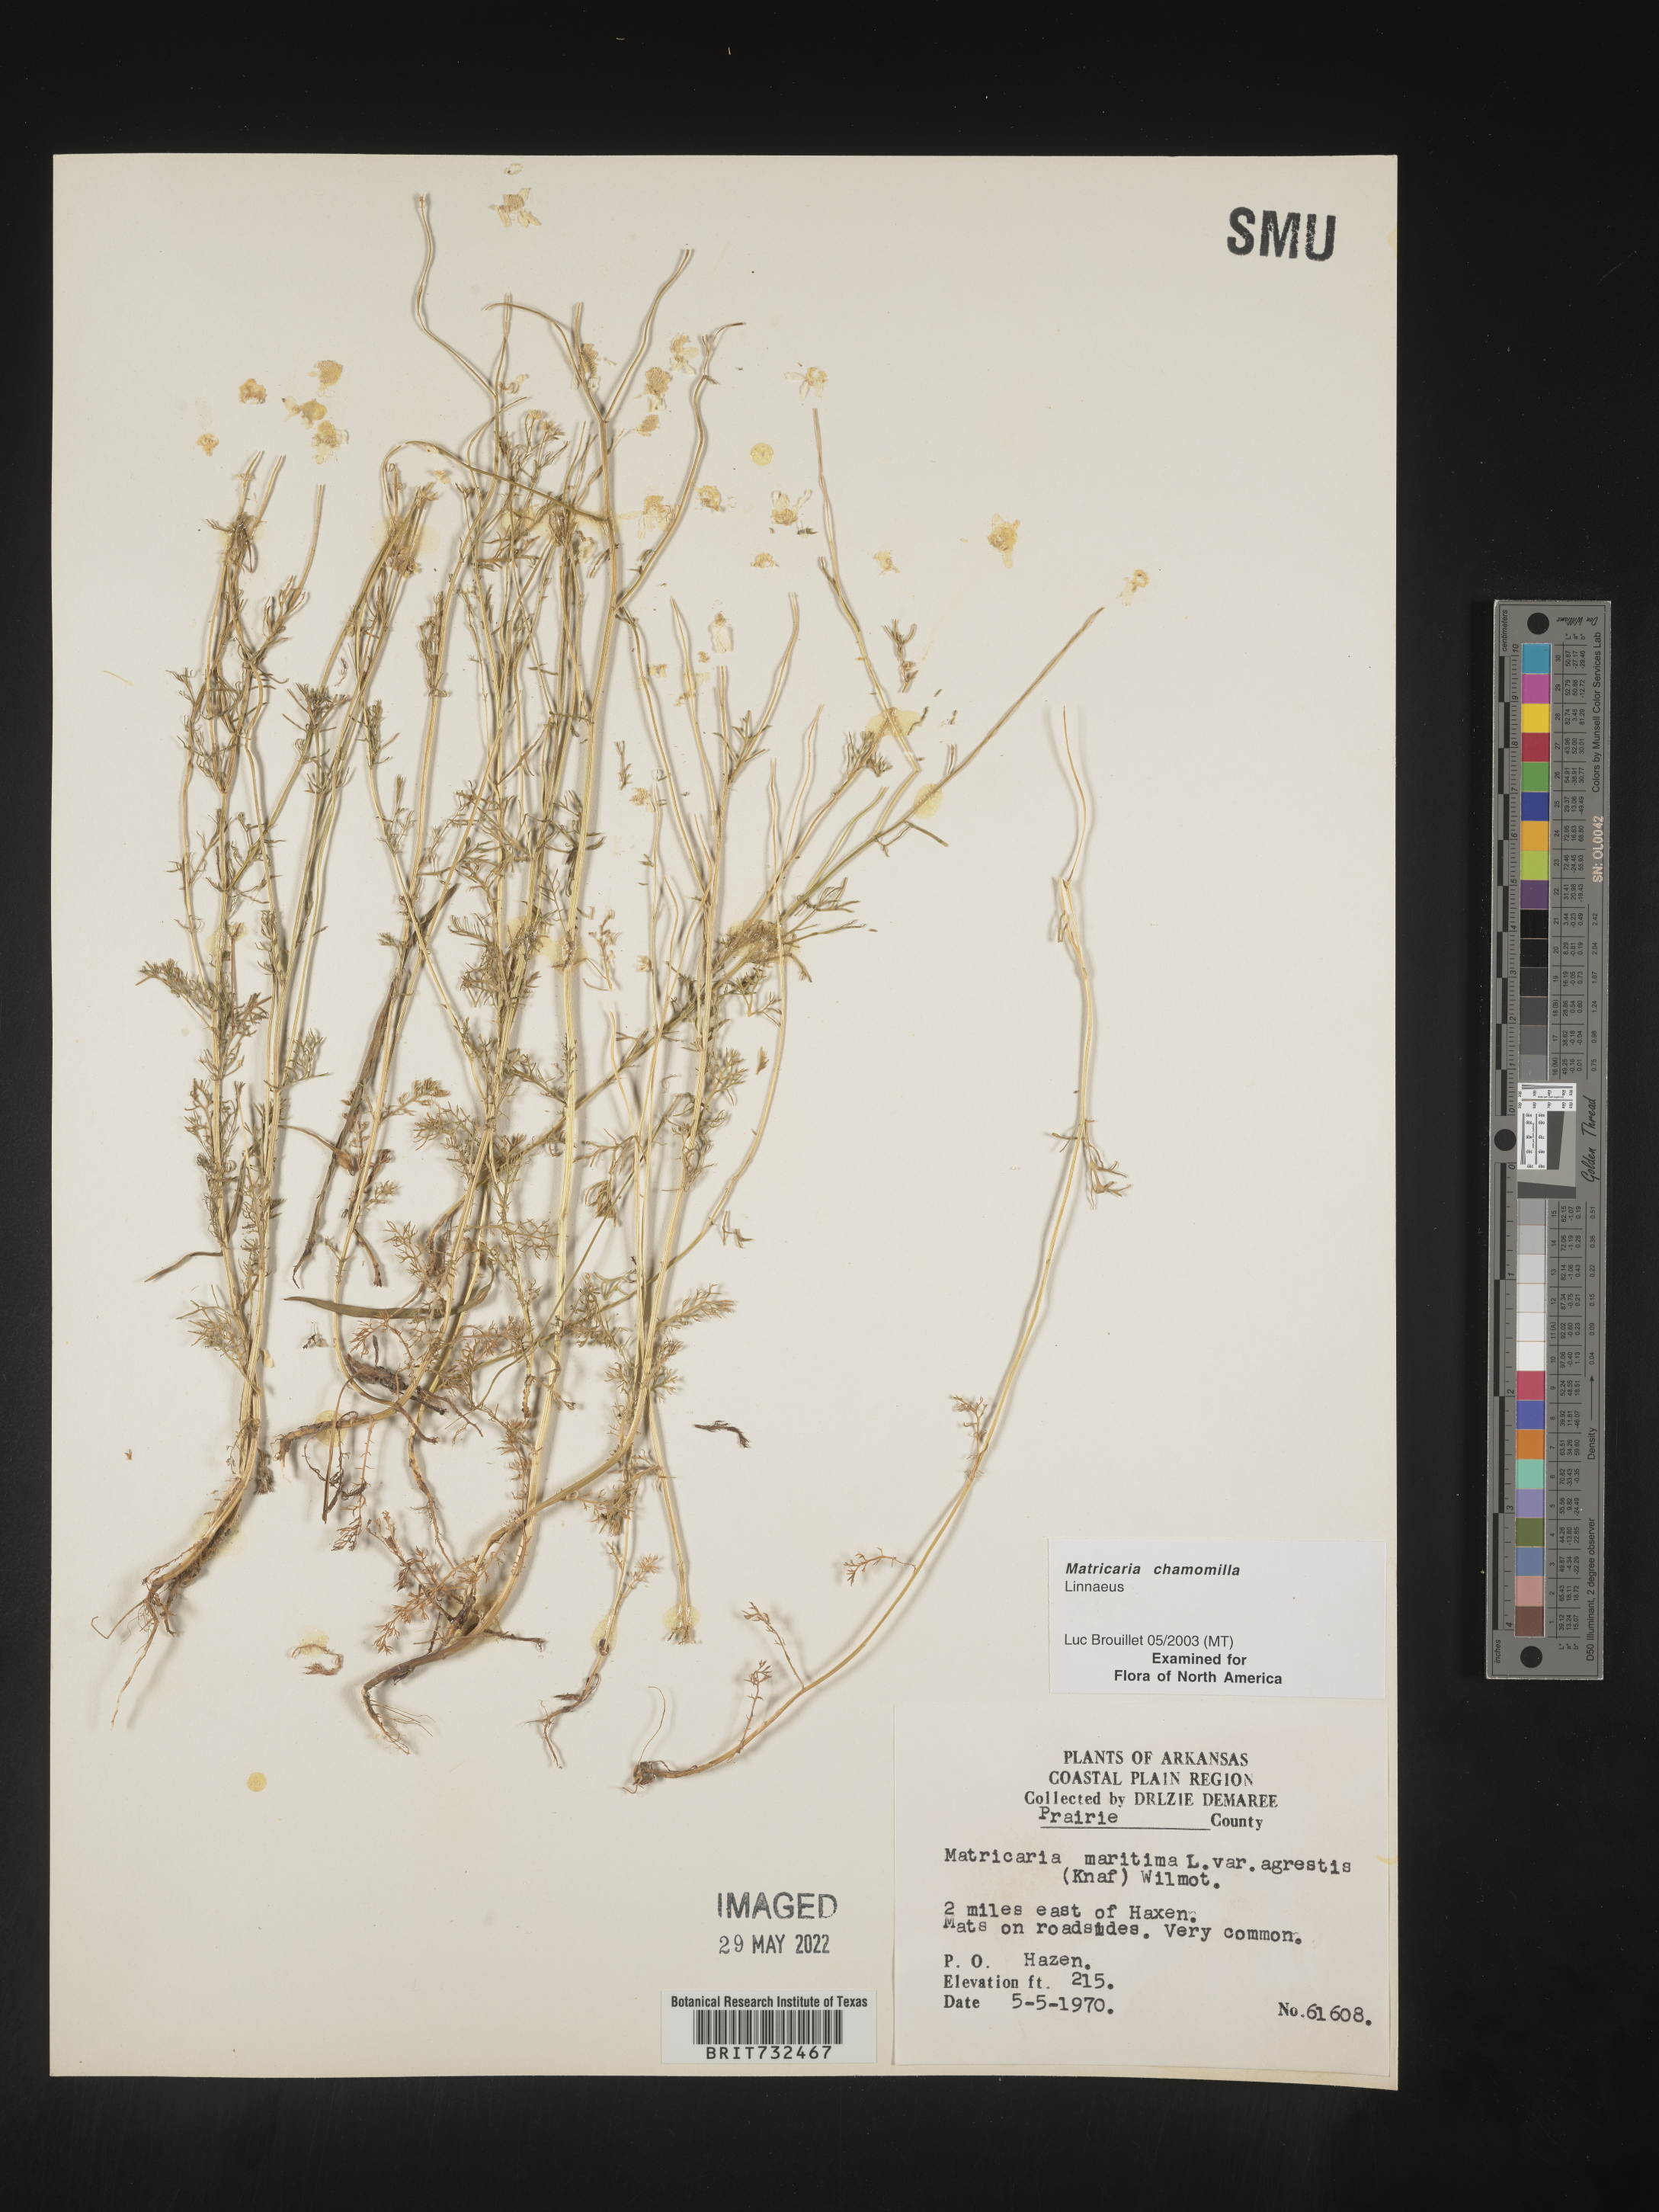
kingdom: Plantae
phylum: Tracheophyta
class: Magnoliopsida
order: Asterales
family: Asteraceae
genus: Matricaria
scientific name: Matricaria chamomilla
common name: Scented mayweed
